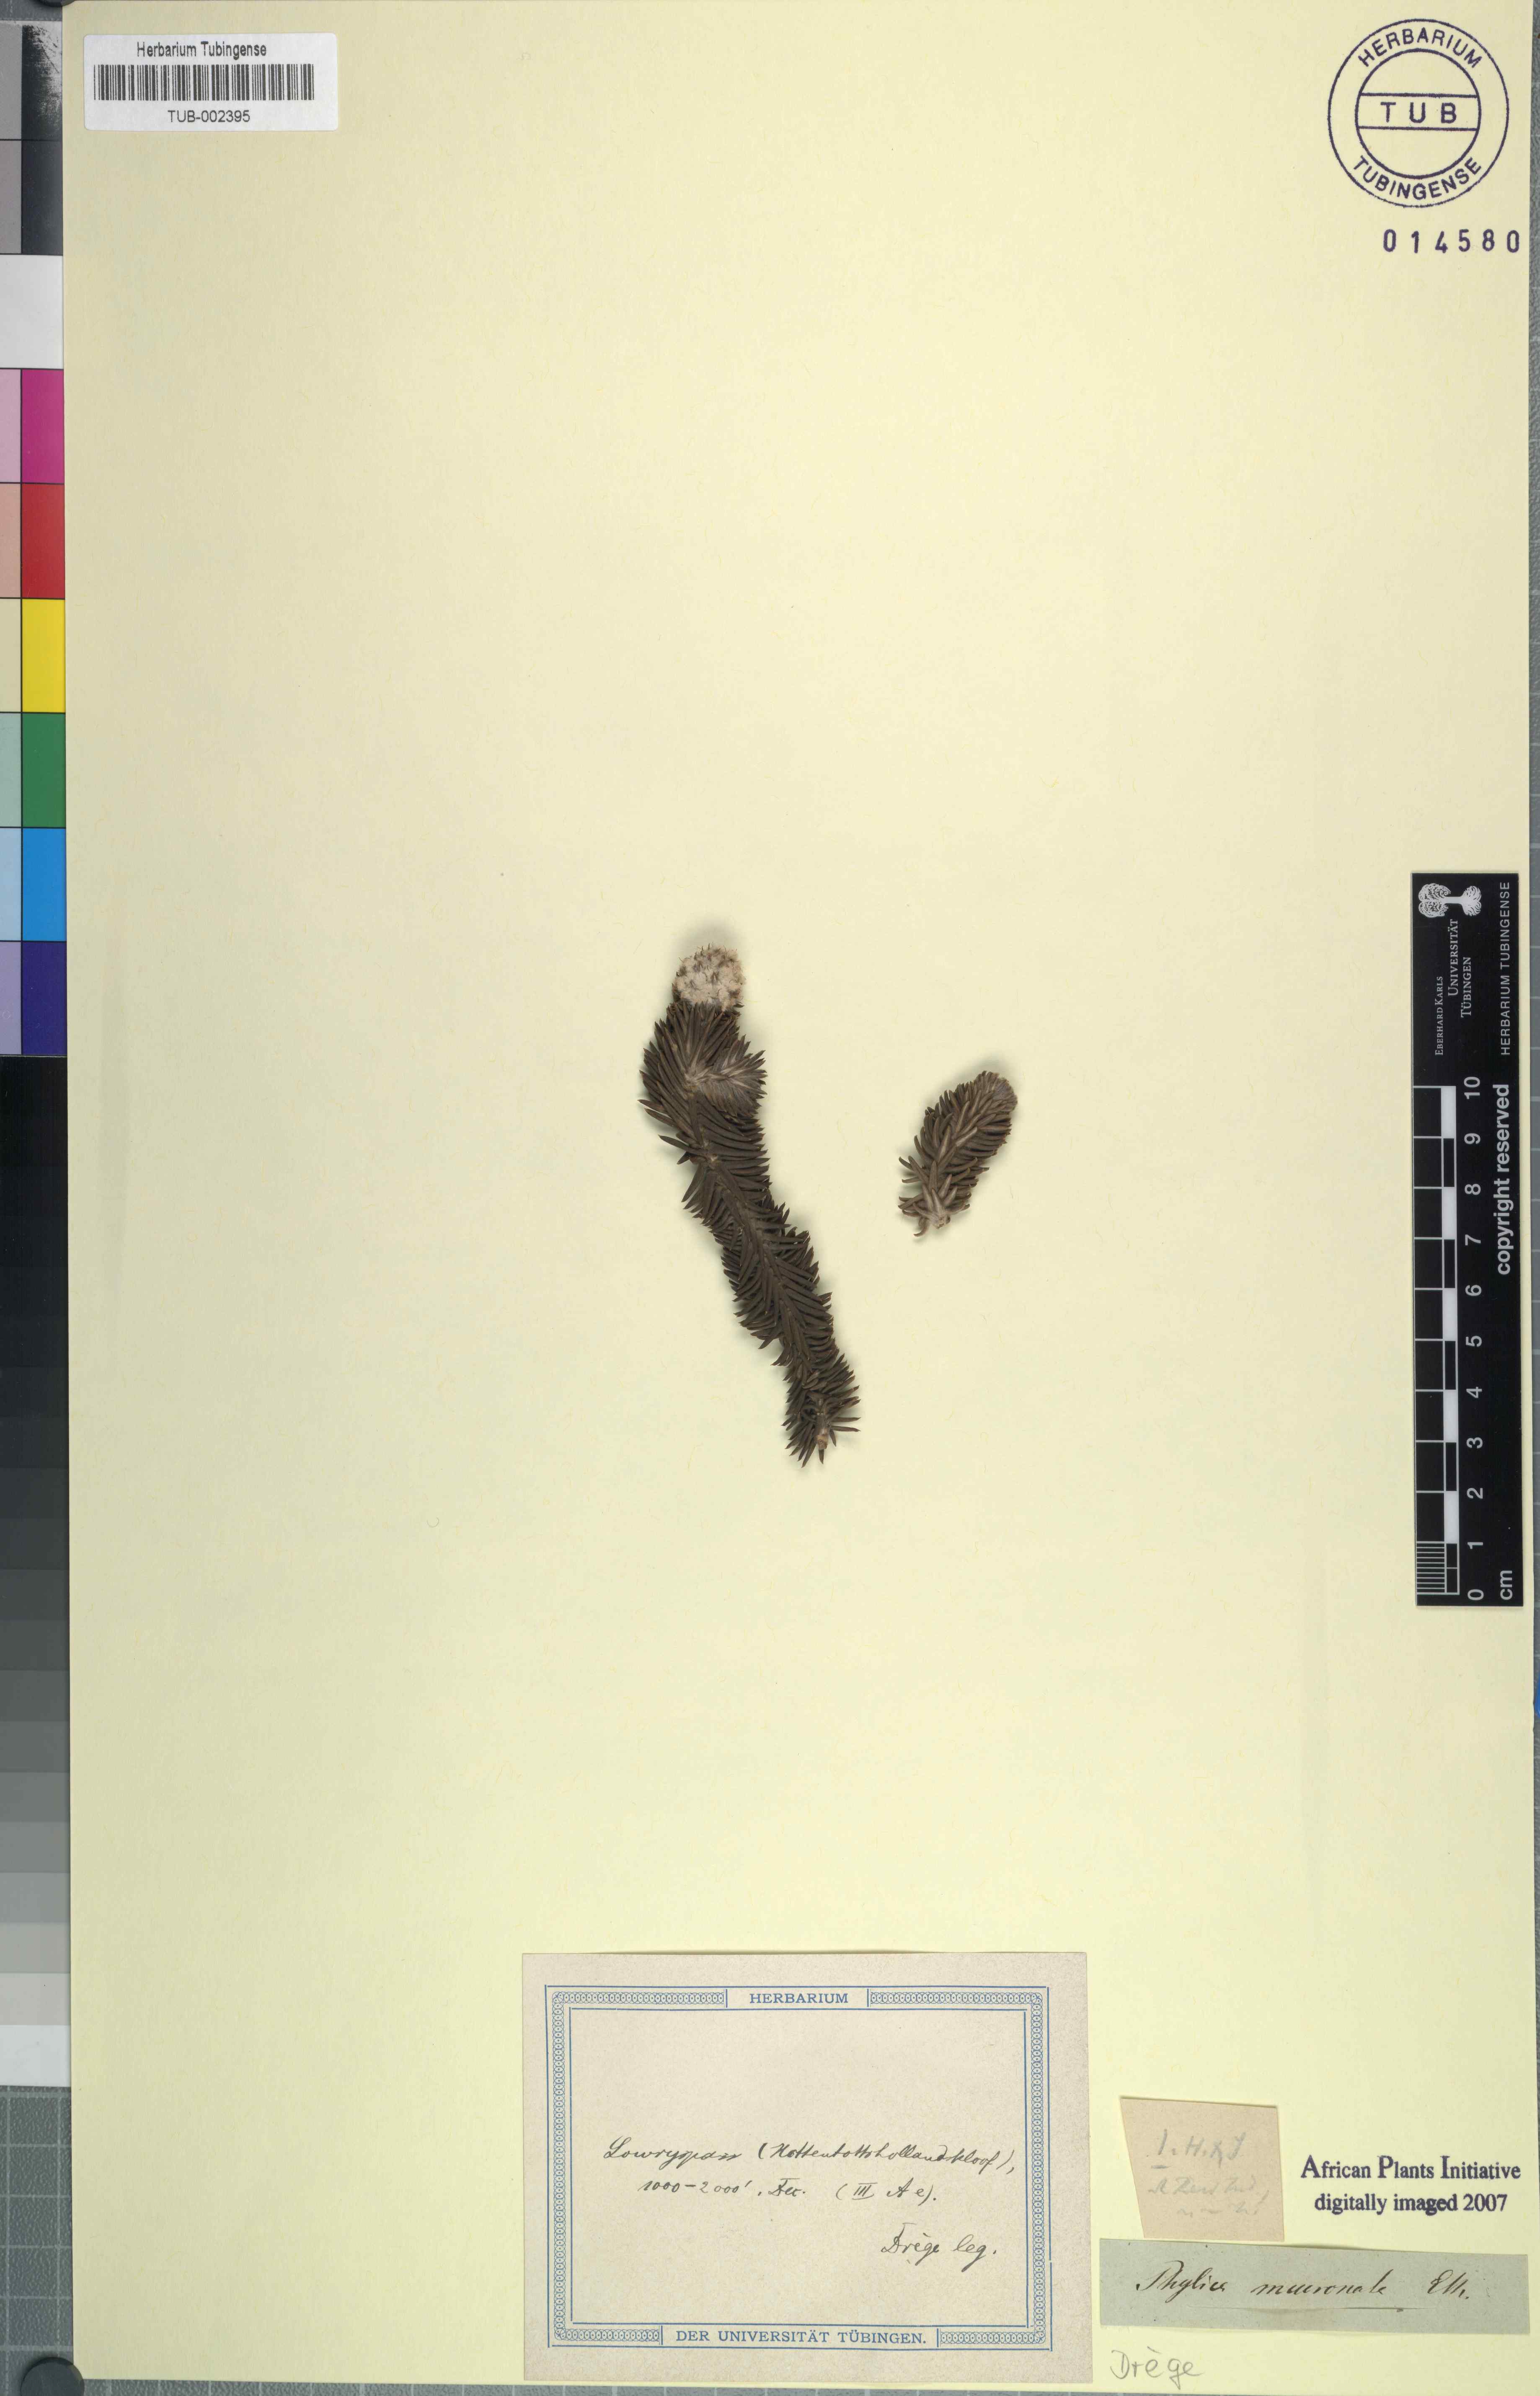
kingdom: Plantae
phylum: Tracheophyta
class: Magnoliopsida
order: Lamiales
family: Stilbaceae
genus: Kogelbergia
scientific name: Kogelbergia verticillata
